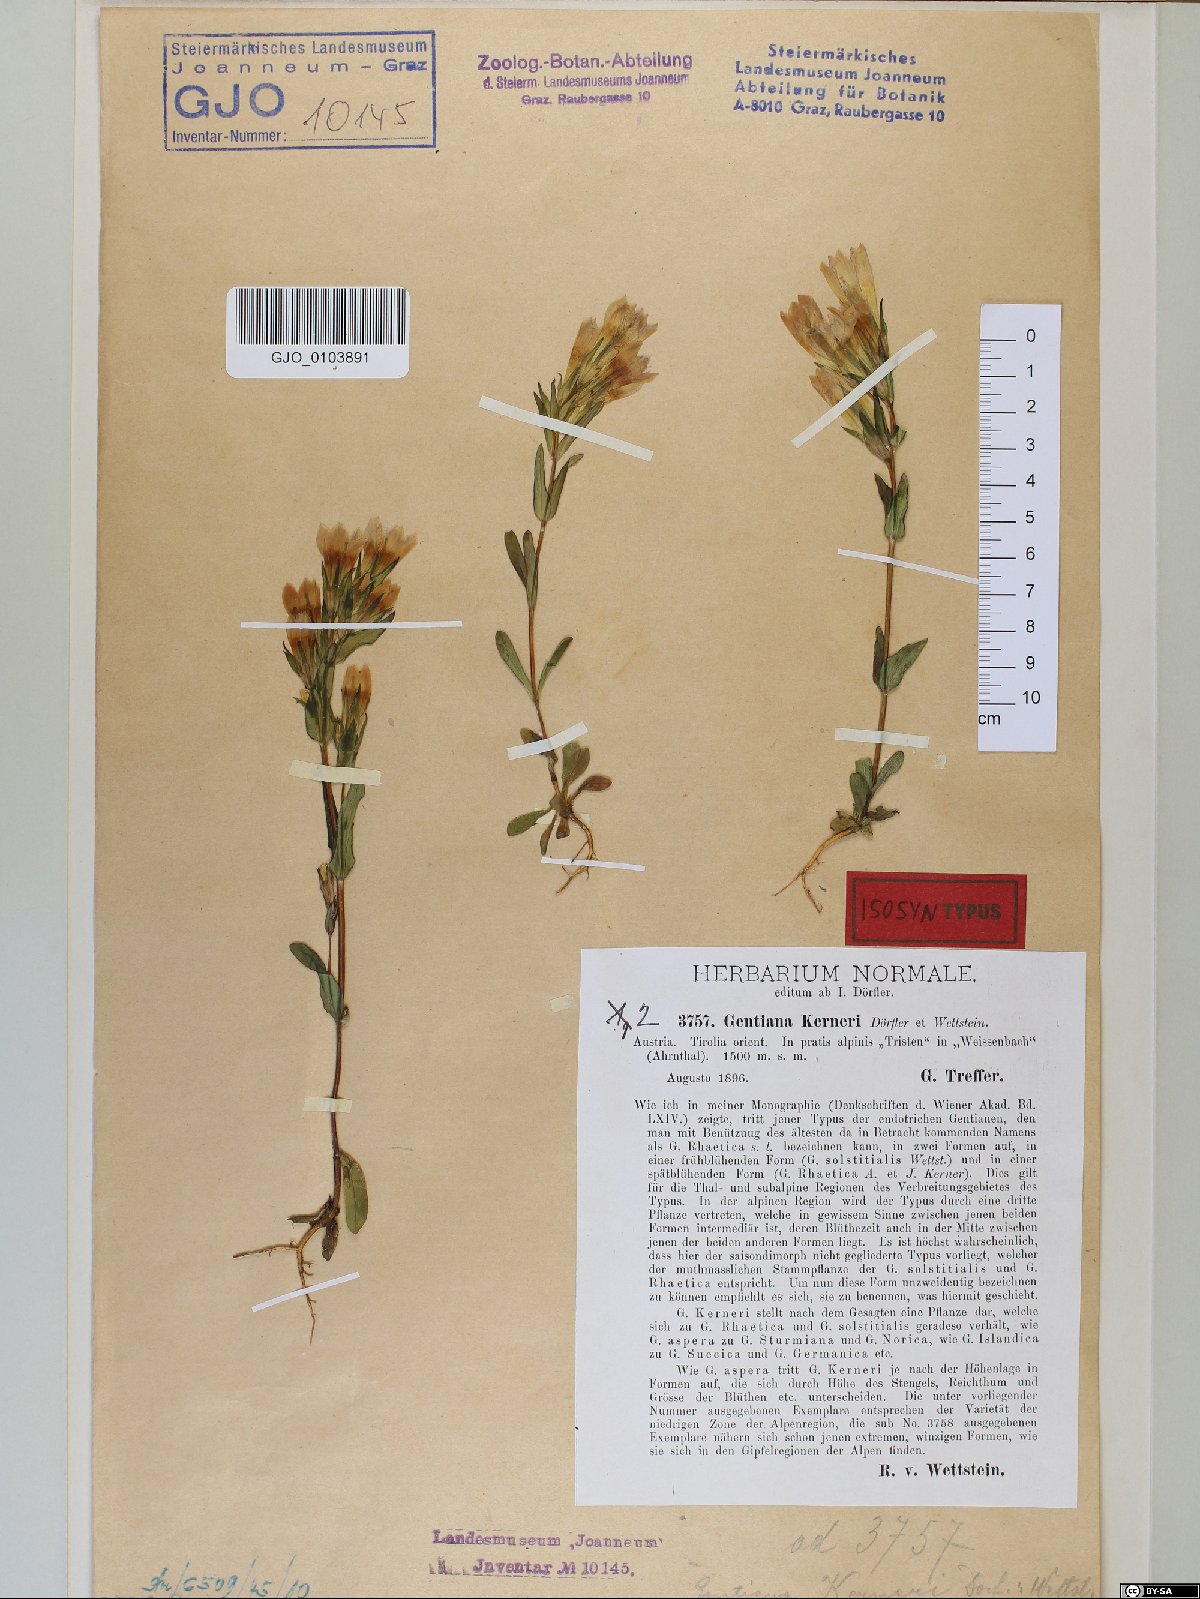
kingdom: Plantae
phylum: Tracheophyta
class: Magnoliopsida
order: Gentianales
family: Gentianaceae
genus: Gentianella
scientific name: Gentianella rhaetica
